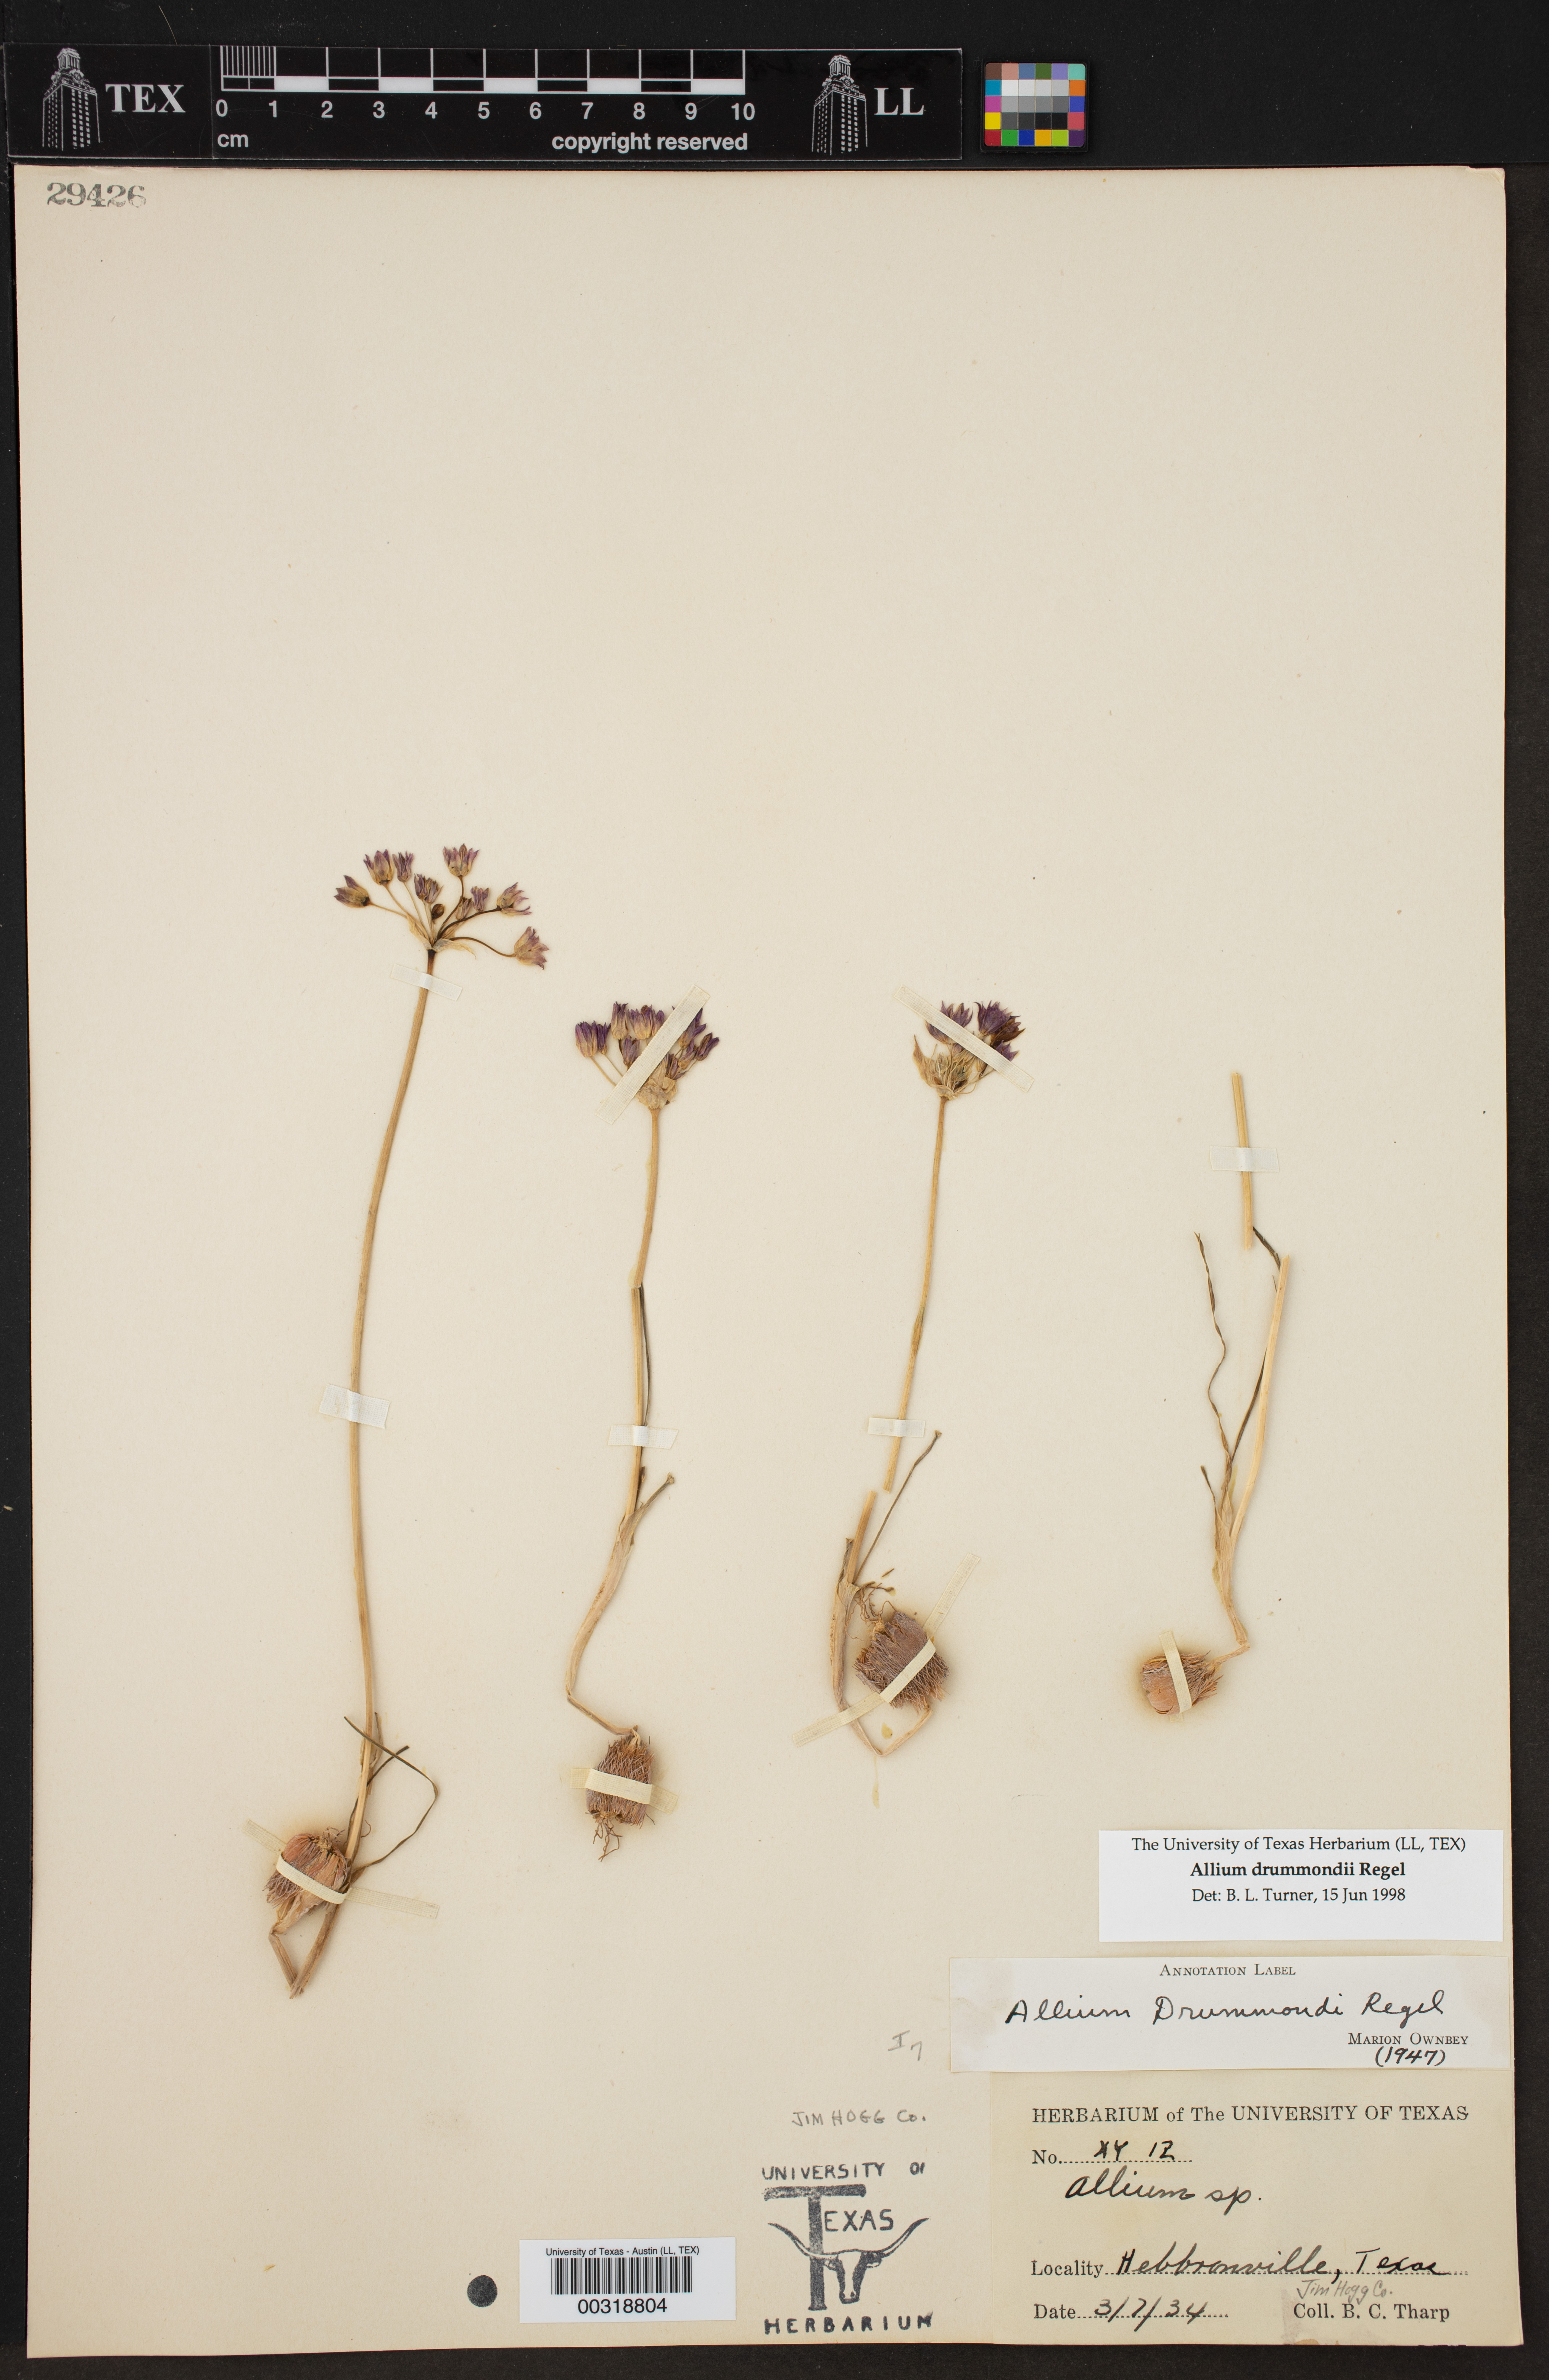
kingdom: Plantae
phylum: Tracheophyta
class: Liliopsida
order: Asparagales
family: Amaryllidaceae
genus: Allium
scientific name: Allium drummondii
